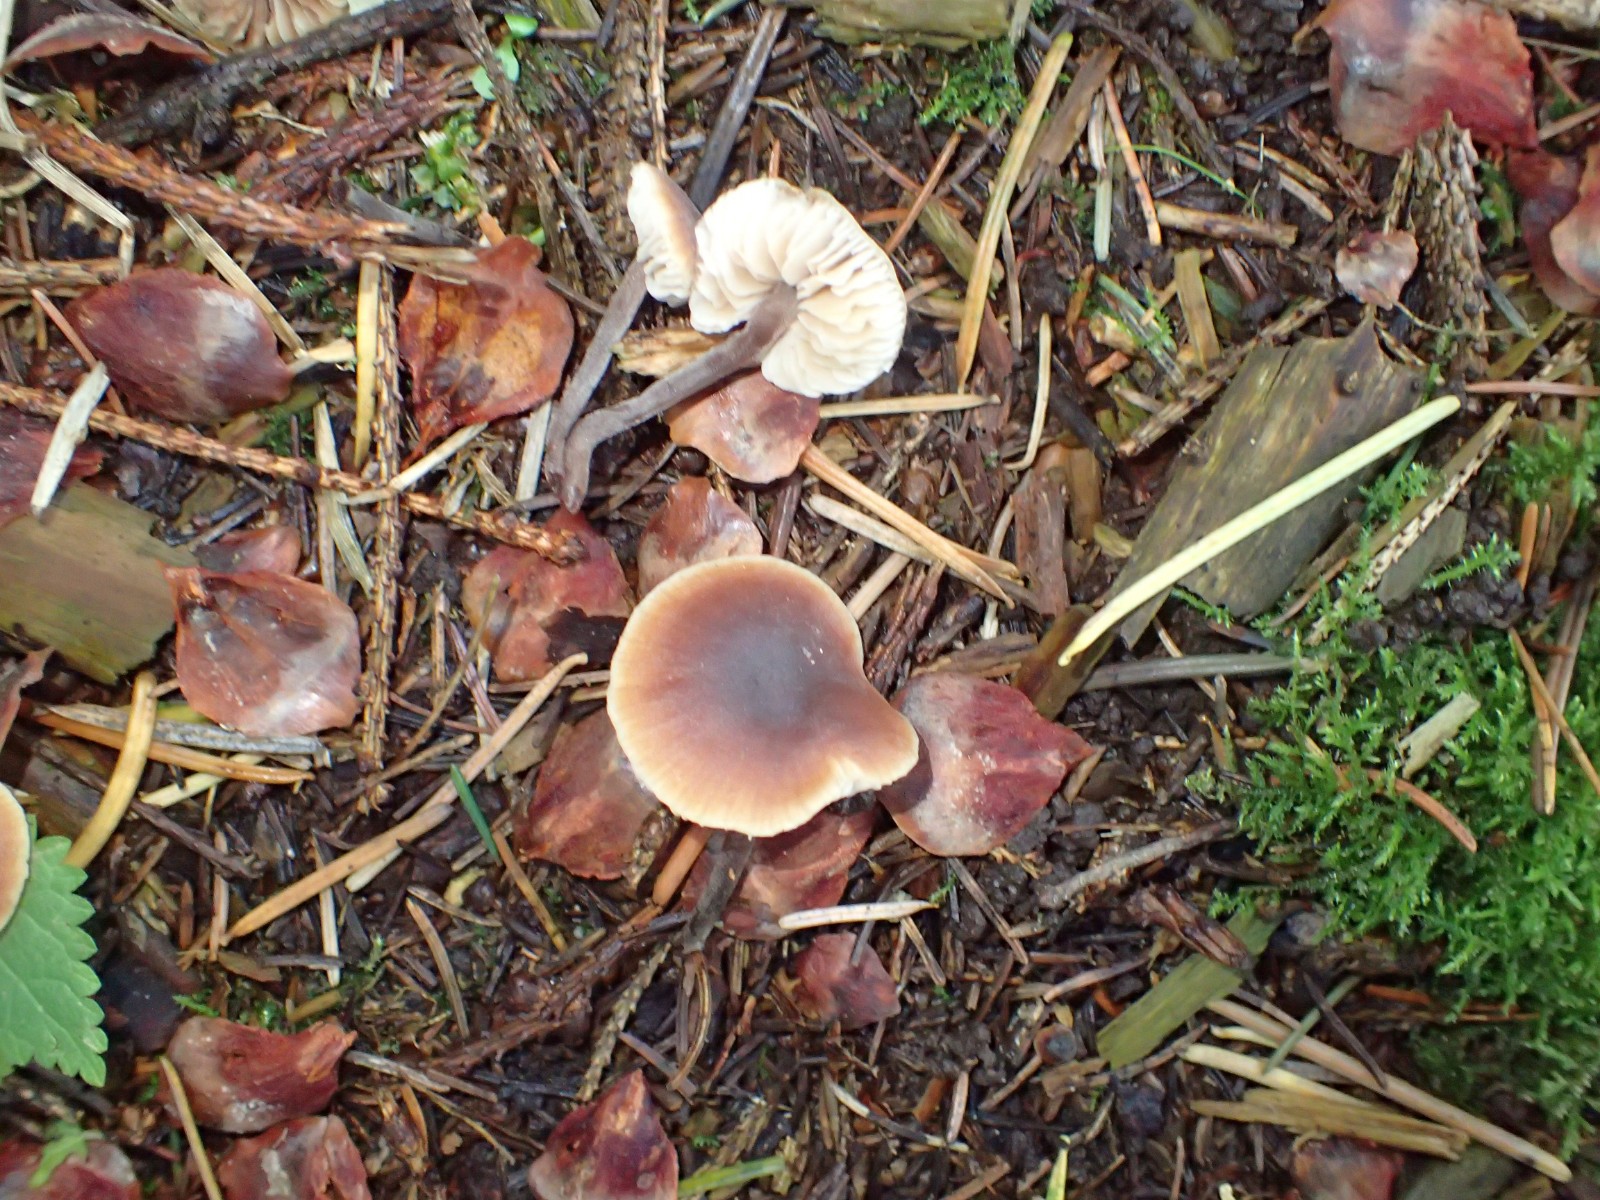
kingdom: Fungi
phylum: Basidiomycota
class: Agaricomycetes
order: Agaricales
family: Macrocystidiaceae
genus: Macrocystidia
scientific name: Macrocystidia cucumis
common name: agurkehat
